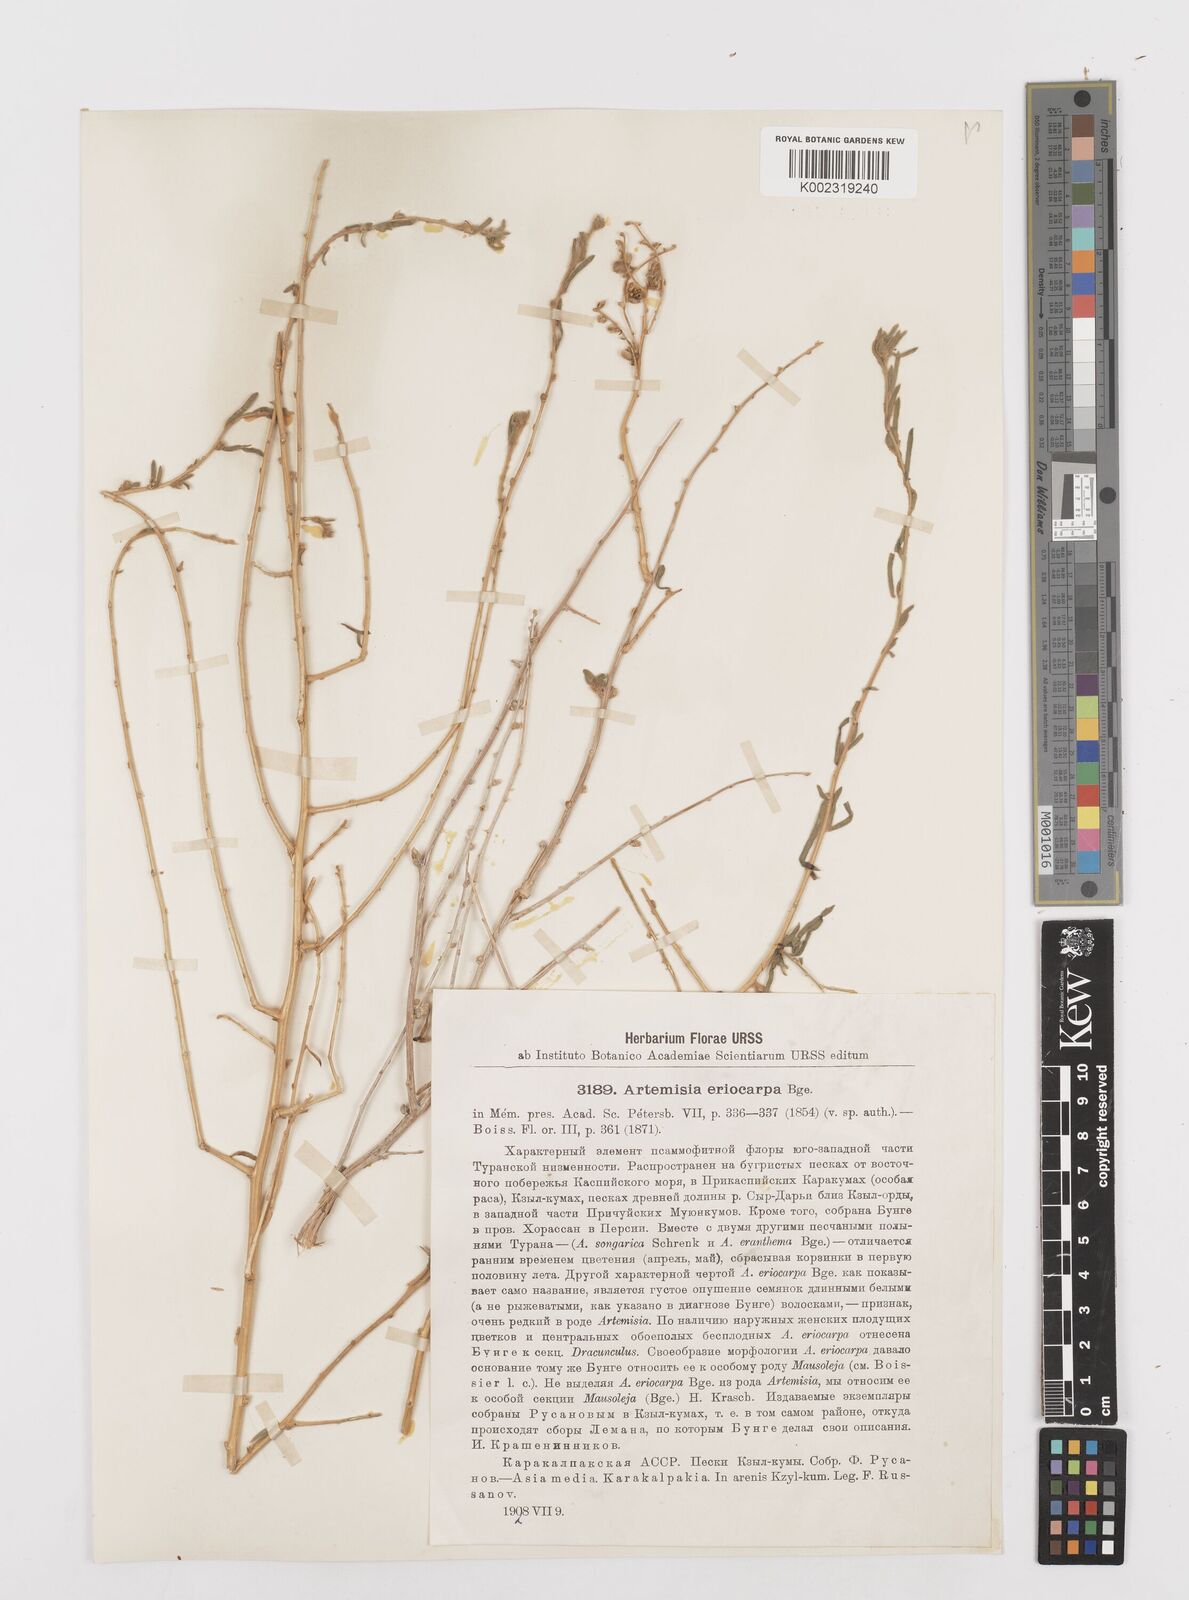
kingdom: Plantae
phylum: Tracheophyta
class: Magnoliopsida
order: Asterales
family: Asteraceae
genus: Mausolea
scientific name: Mausolea
